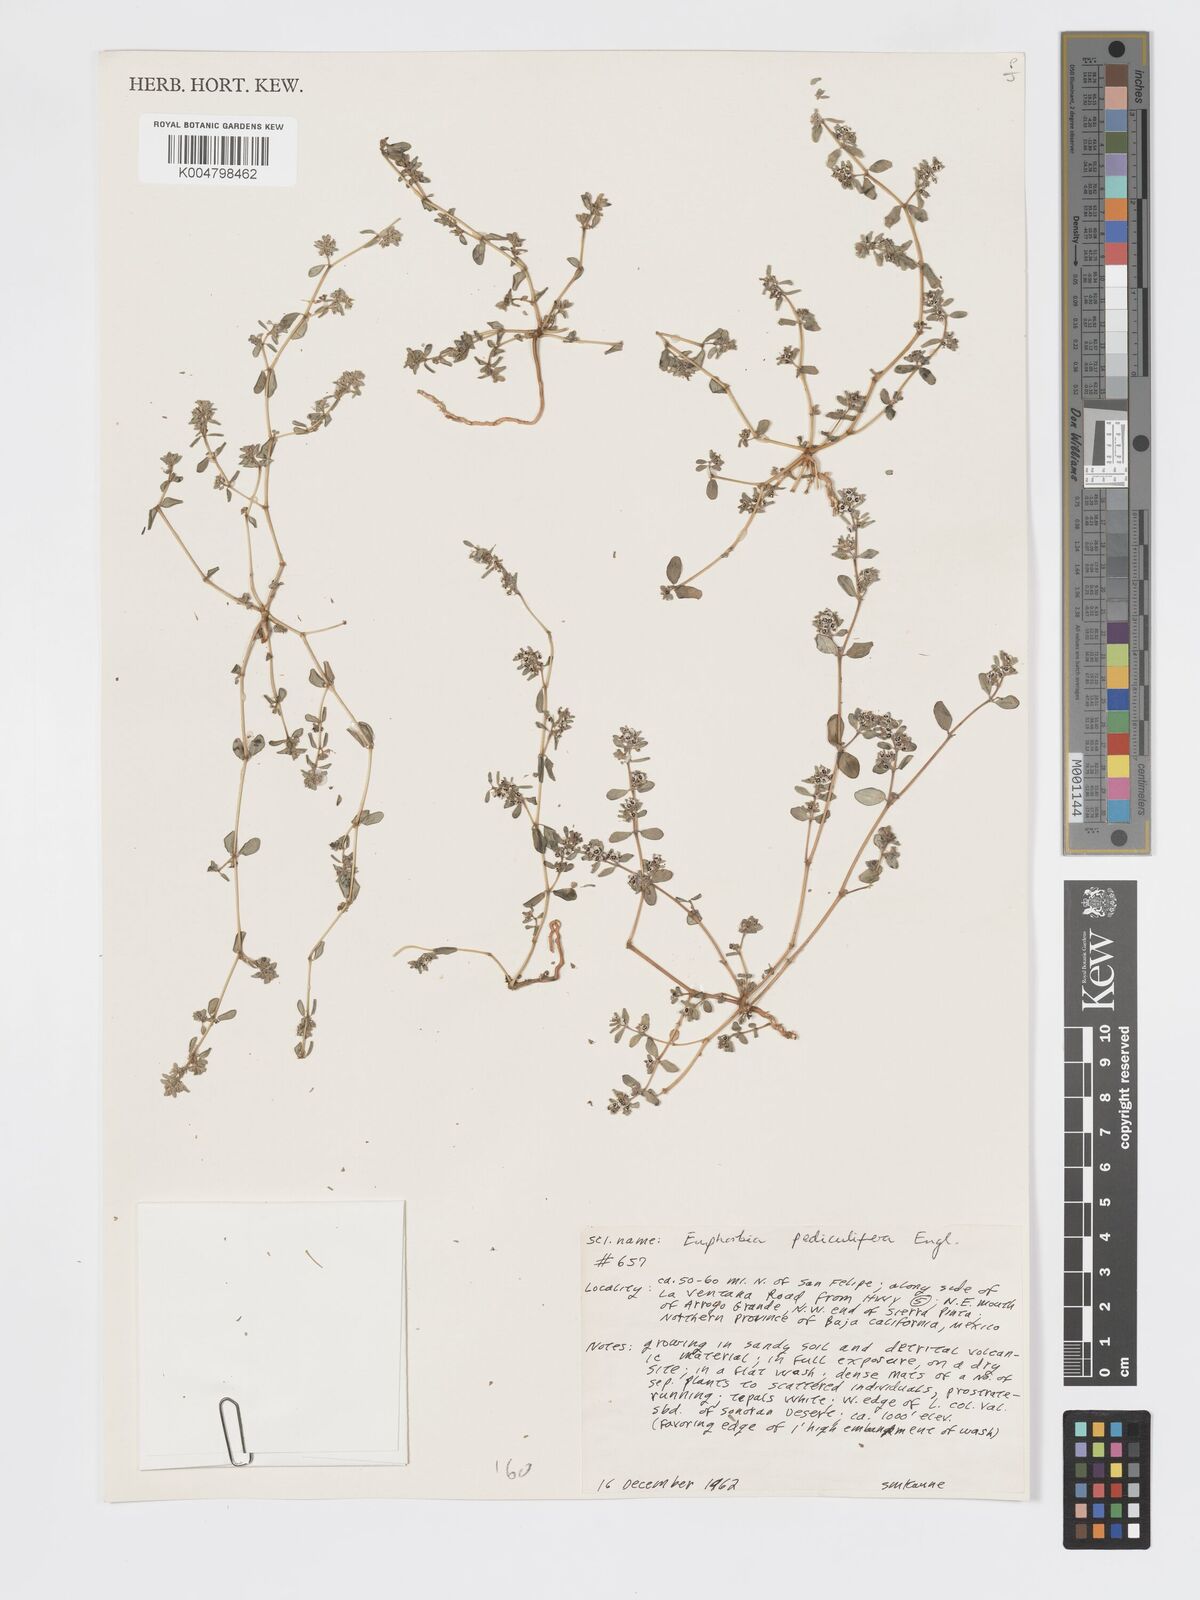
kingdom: Plantae
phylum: Tracheophyta
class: Magnoliopsida
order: Malpighiales
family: Euphorbiaceae
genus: Euphorbia
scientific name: Euphorbia pediculifera
